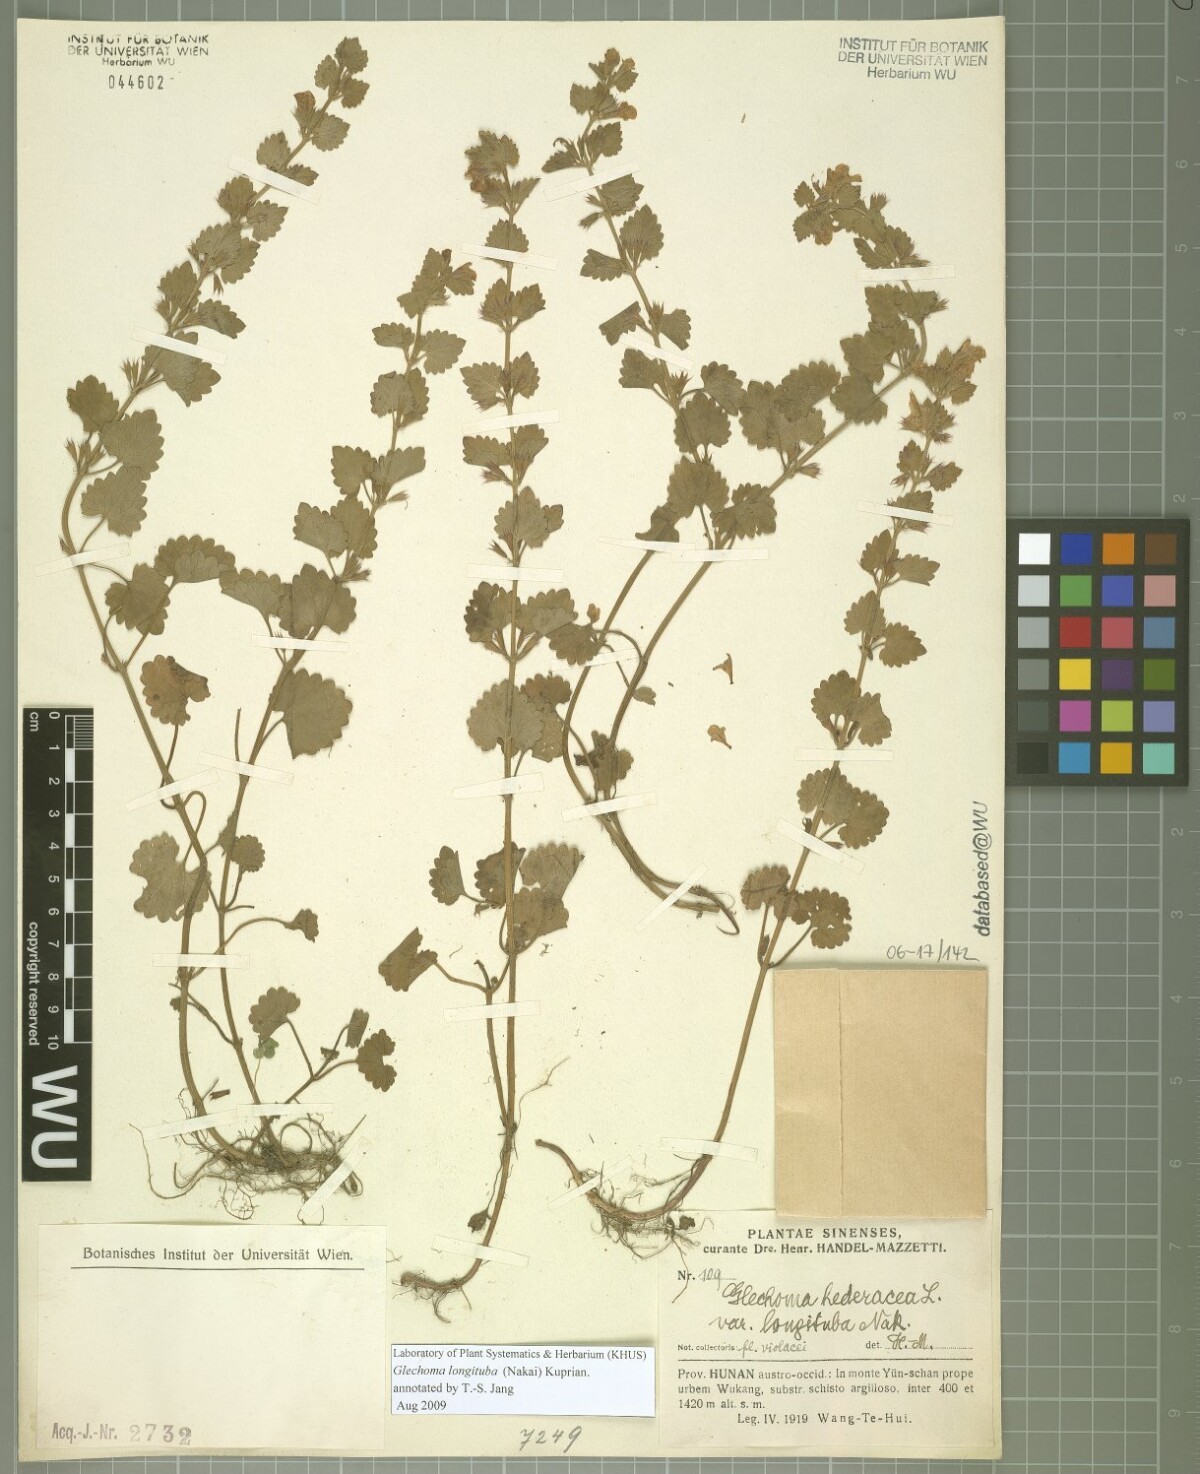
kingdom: Plantae
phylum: Tracheophyta
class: Magnoliopsida
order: Lamiales
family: Lamiaceae
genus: Glechoma
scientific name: Glechoma longituba
